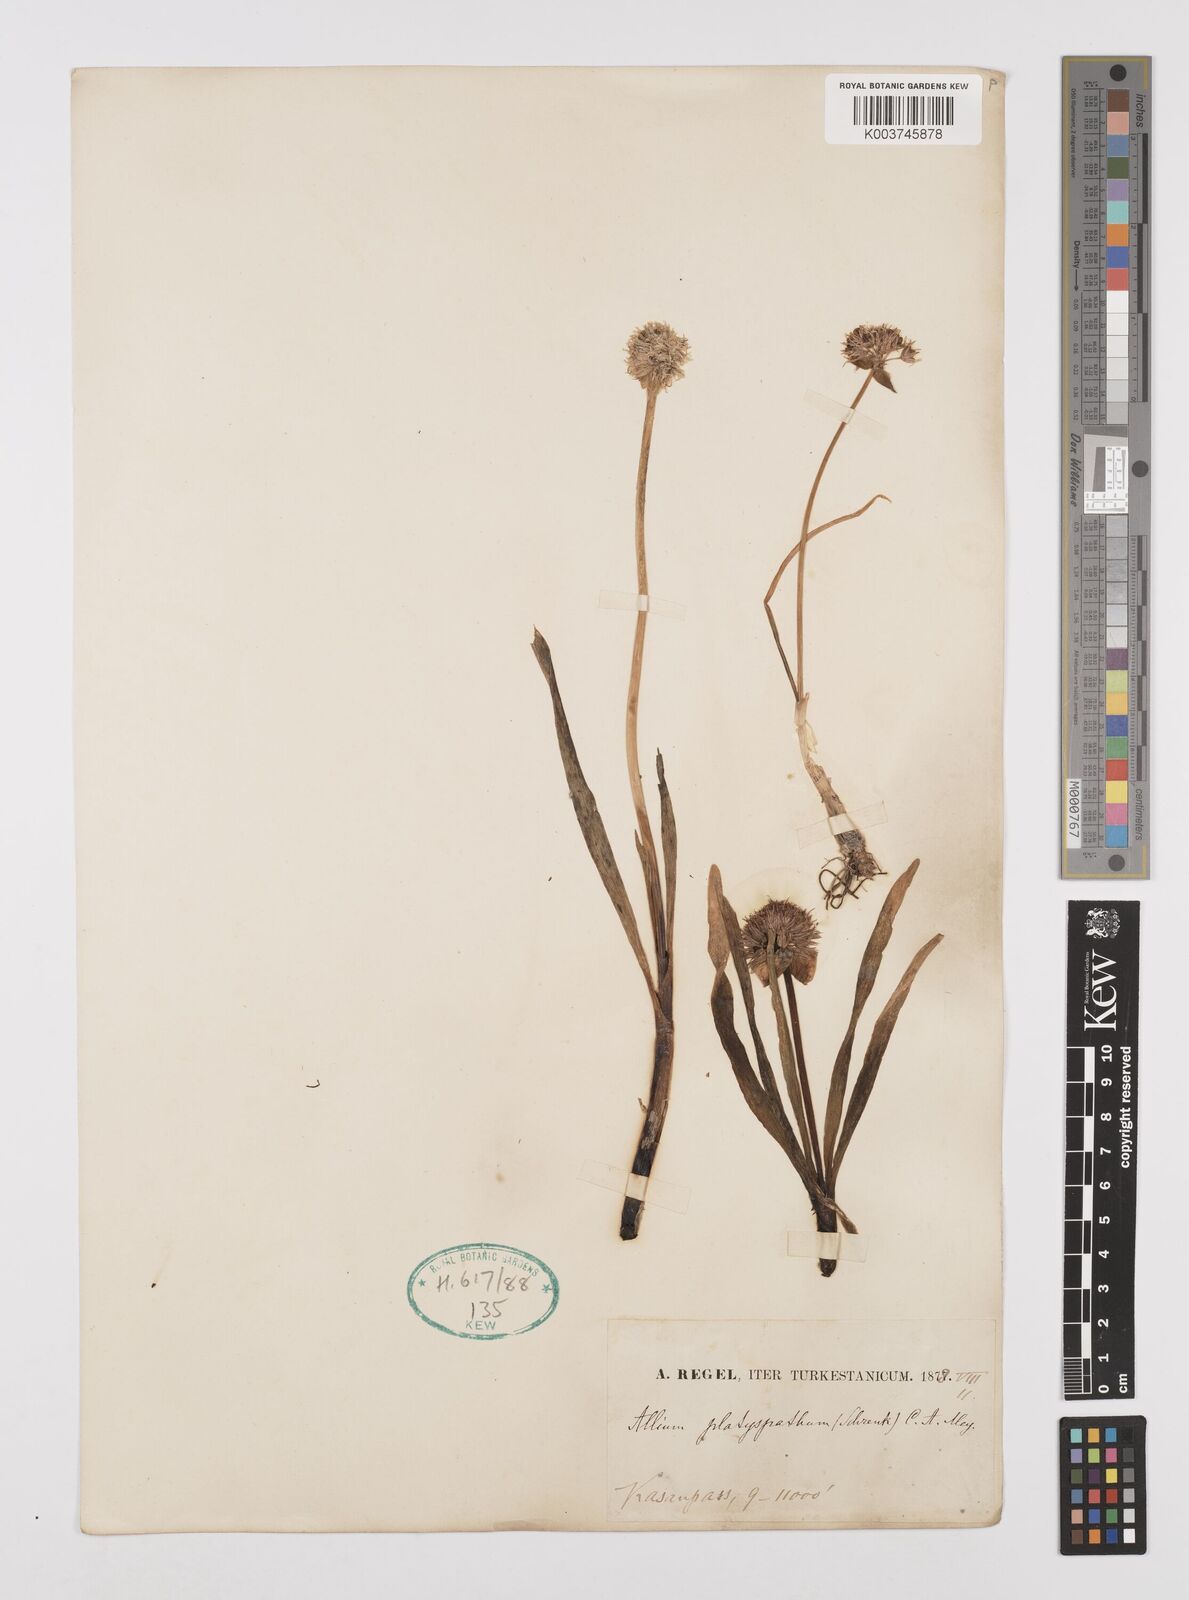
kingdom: Plantae
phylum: Tracheophyta
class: Liliopsida
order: Asparagales
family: Amaryllidaceae
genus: Allium
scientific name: Allium platyspathum
